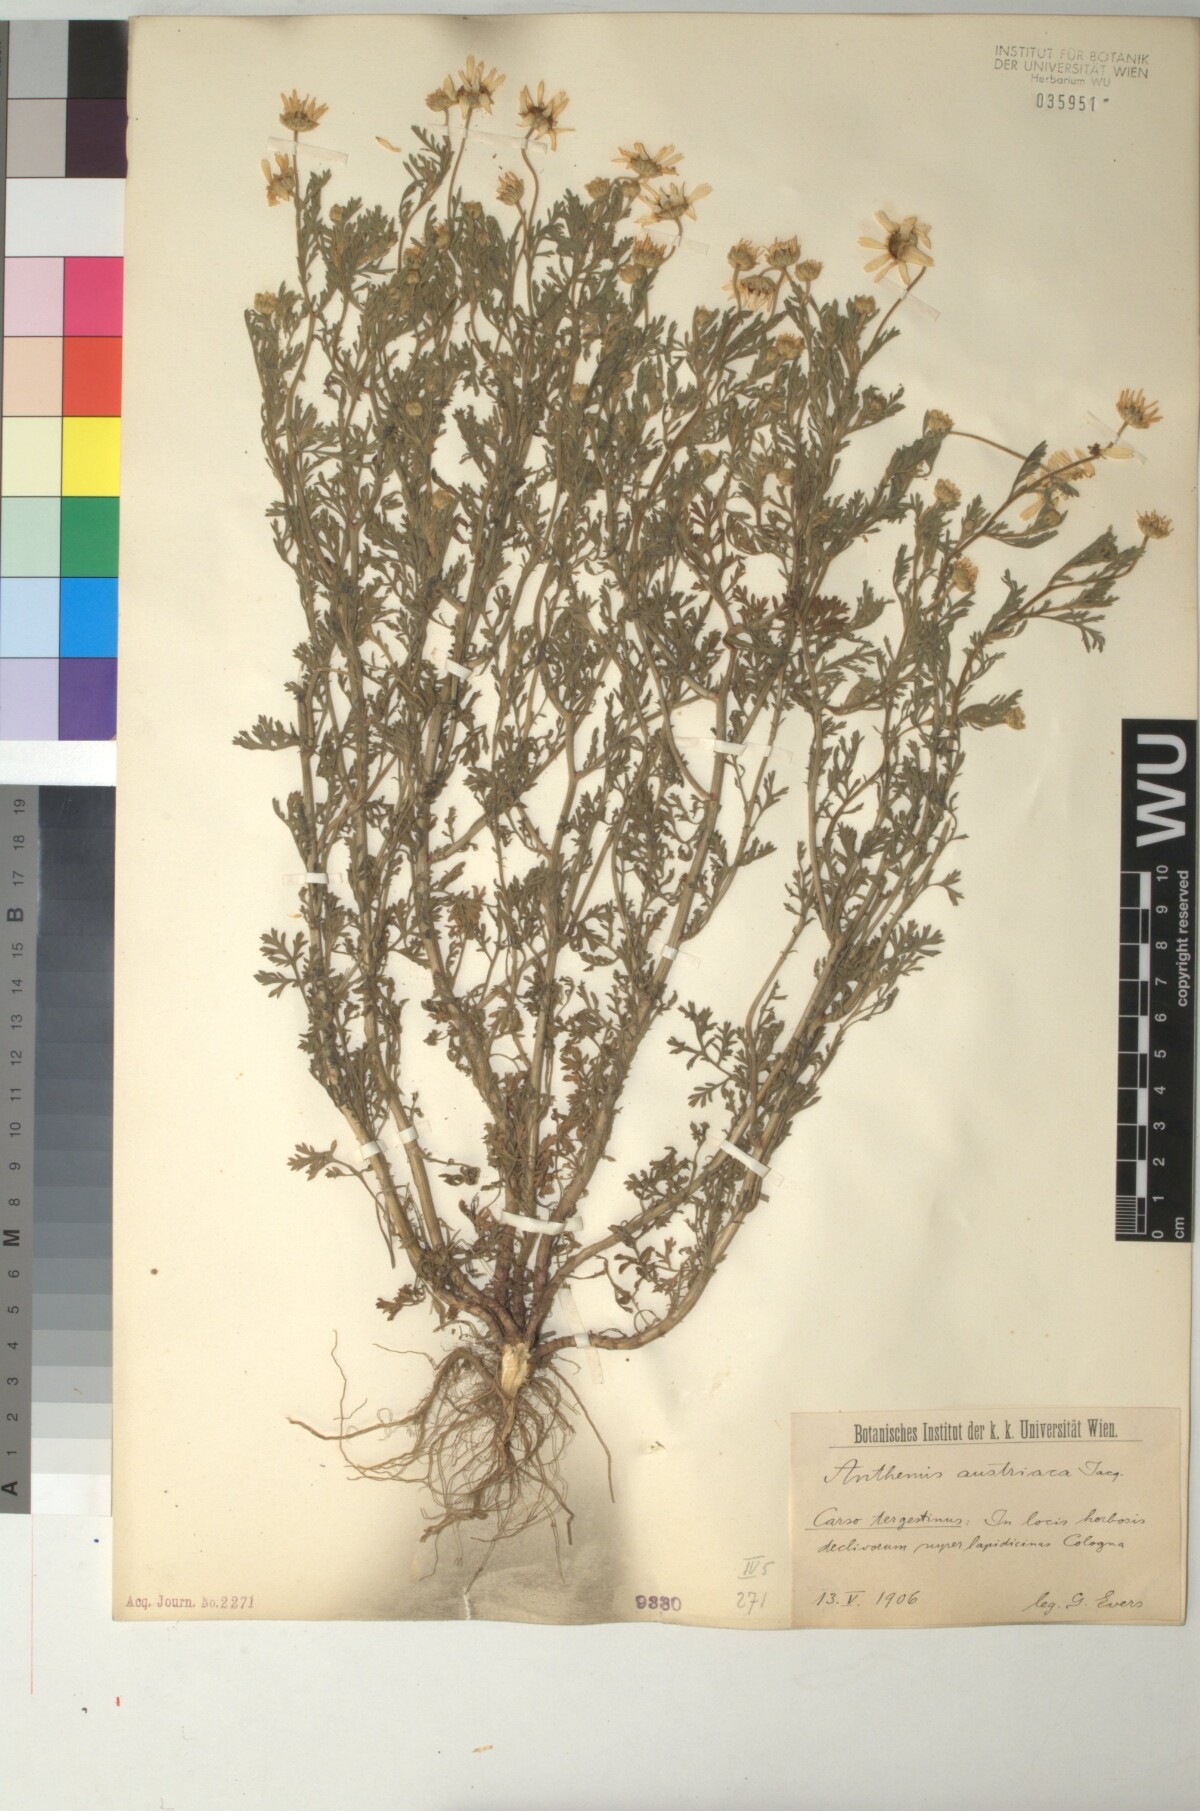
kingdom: Plantae
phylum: Tracheophyta
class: Magnoliopsida
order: Asterales
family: Asteraceae
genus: Cota
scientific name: Cota austriaca
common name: Austrian chamomile
